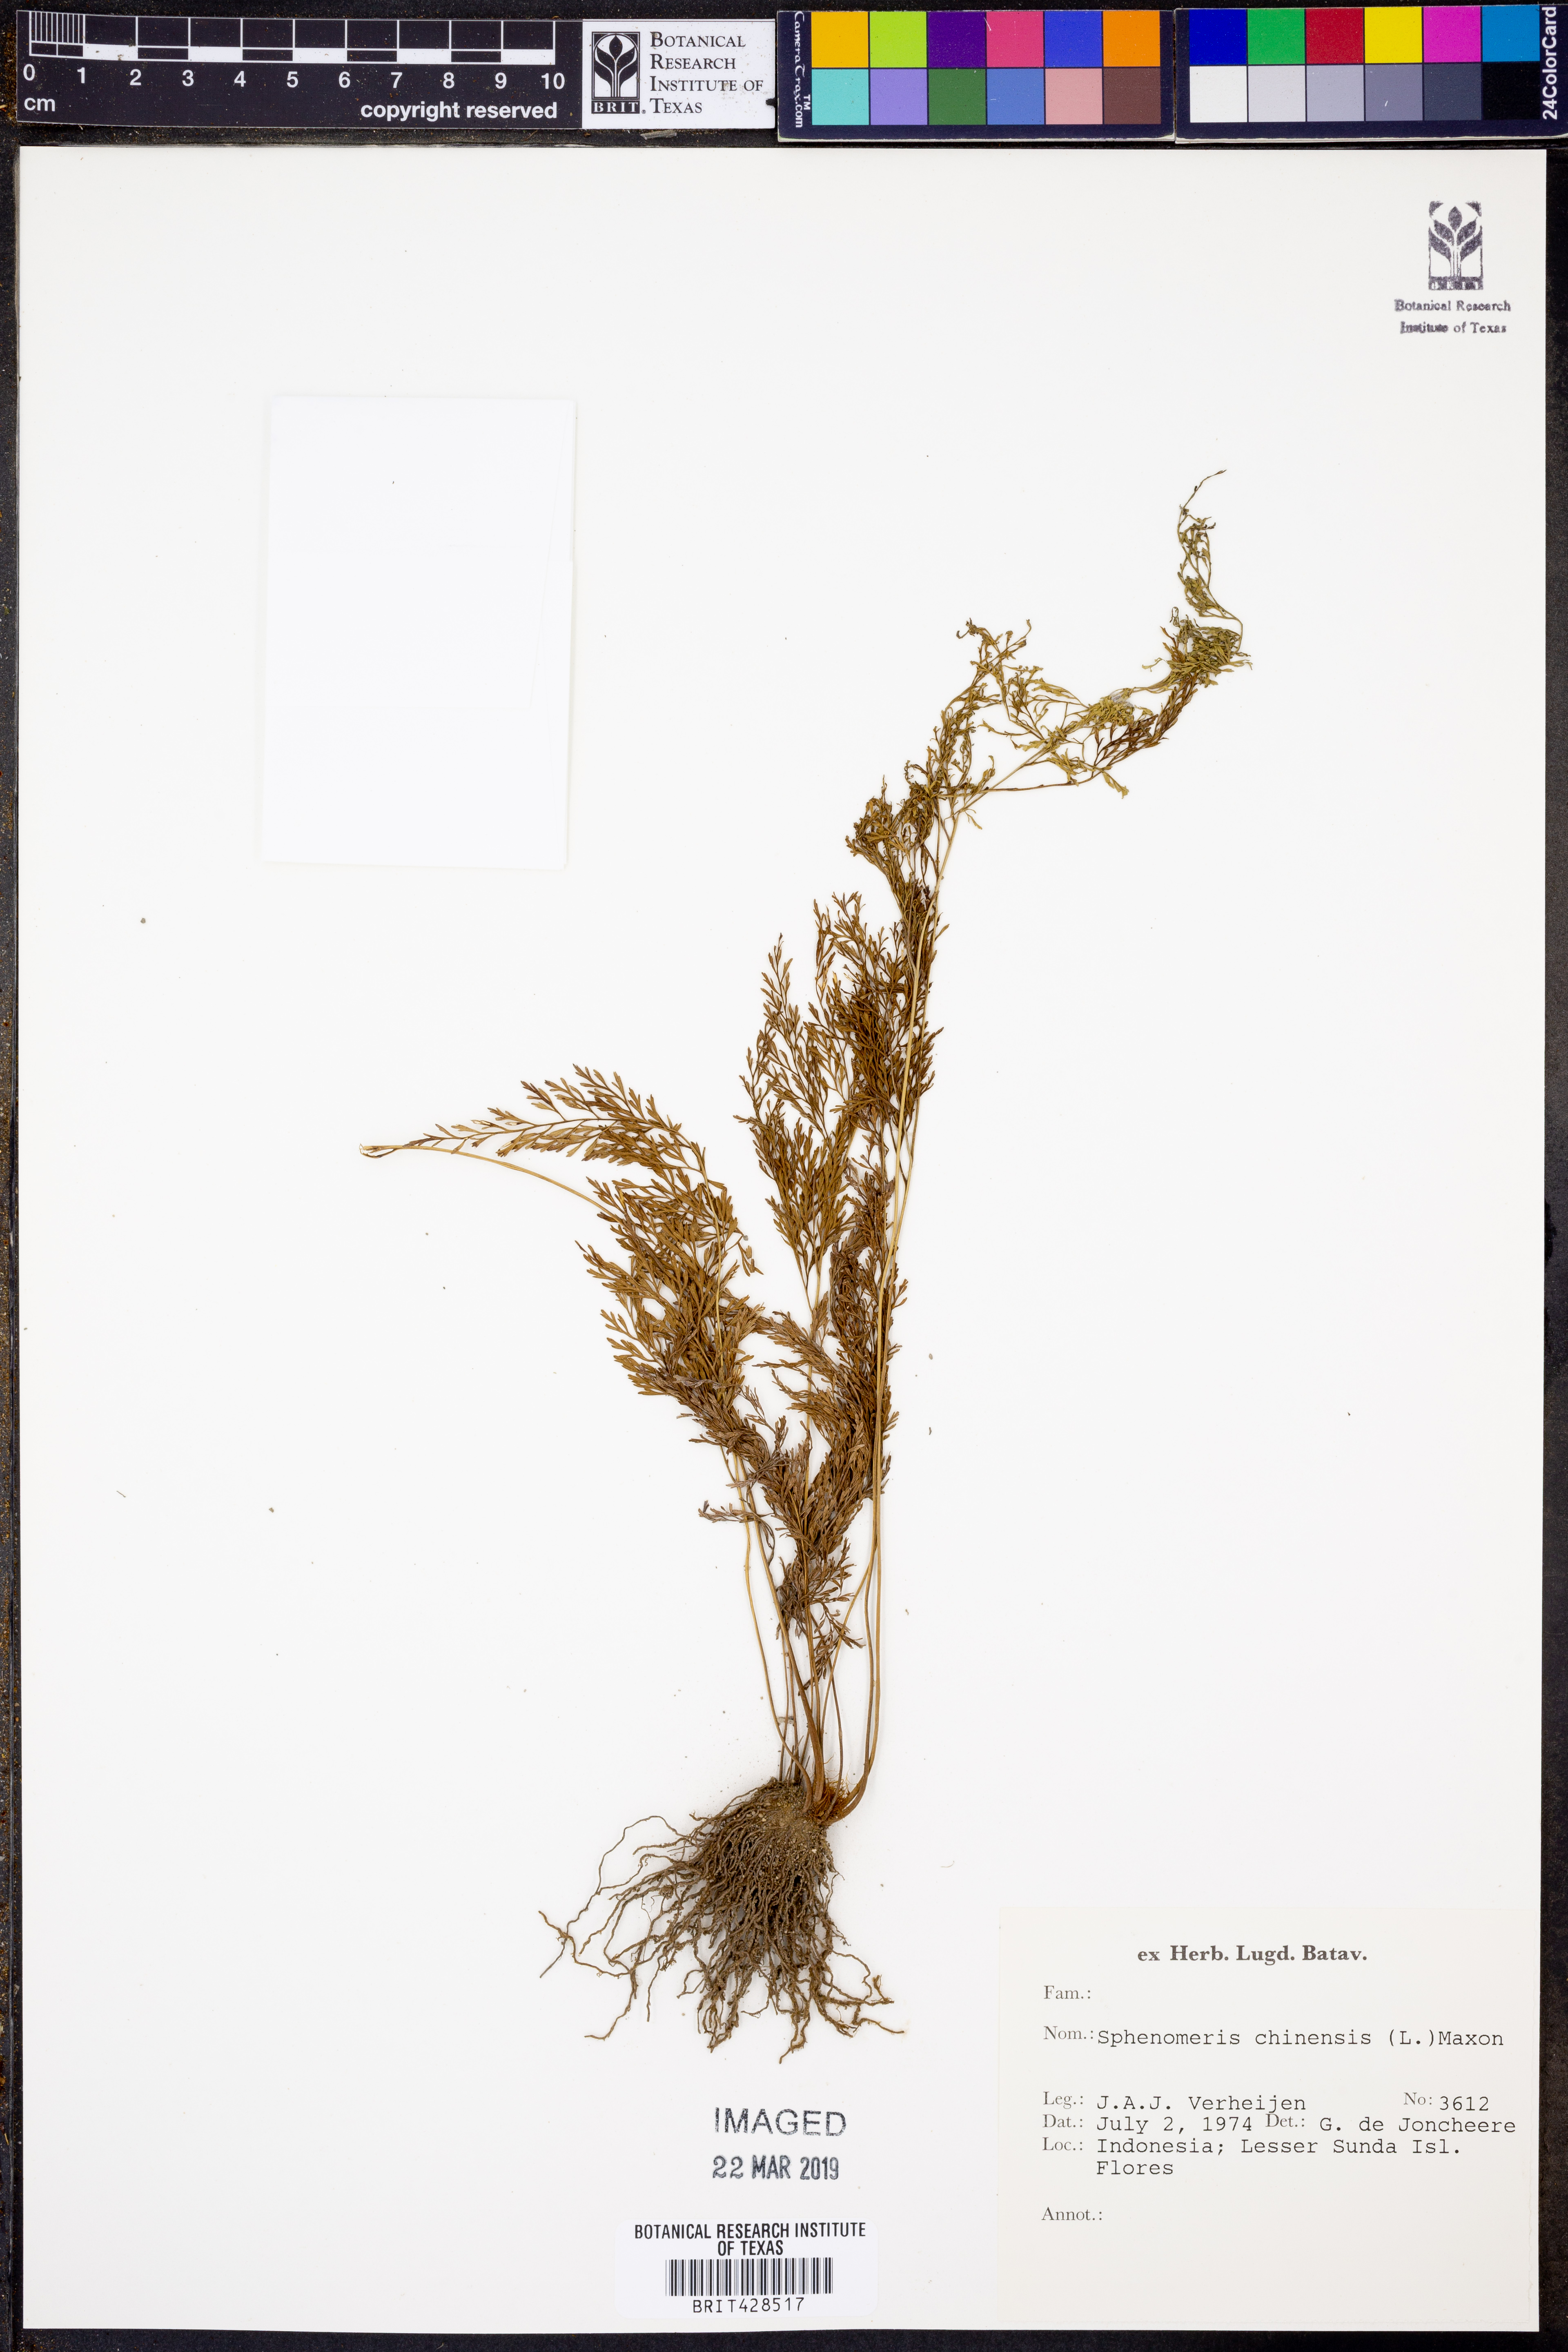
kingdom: Plantae
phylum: Tracheophyta
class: Polypodiopsida
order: Polypodiales
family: Lindsaeaceae
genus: Odontosoria
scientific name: Odontosoria chinensis
